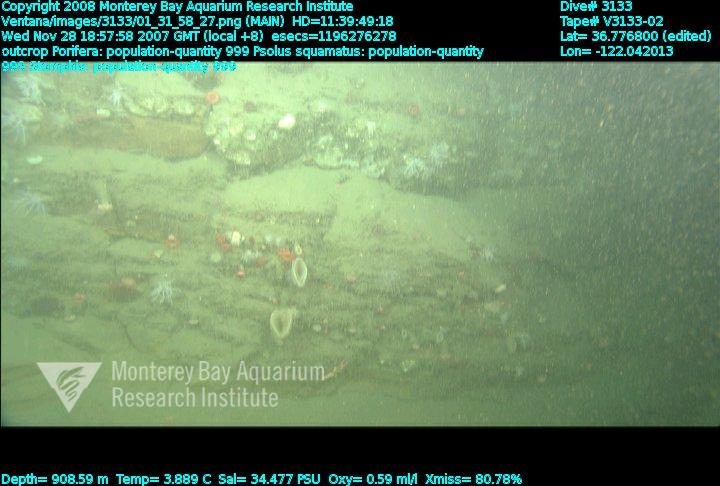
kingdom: Animalia
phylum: Porifera
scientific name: Porifera
